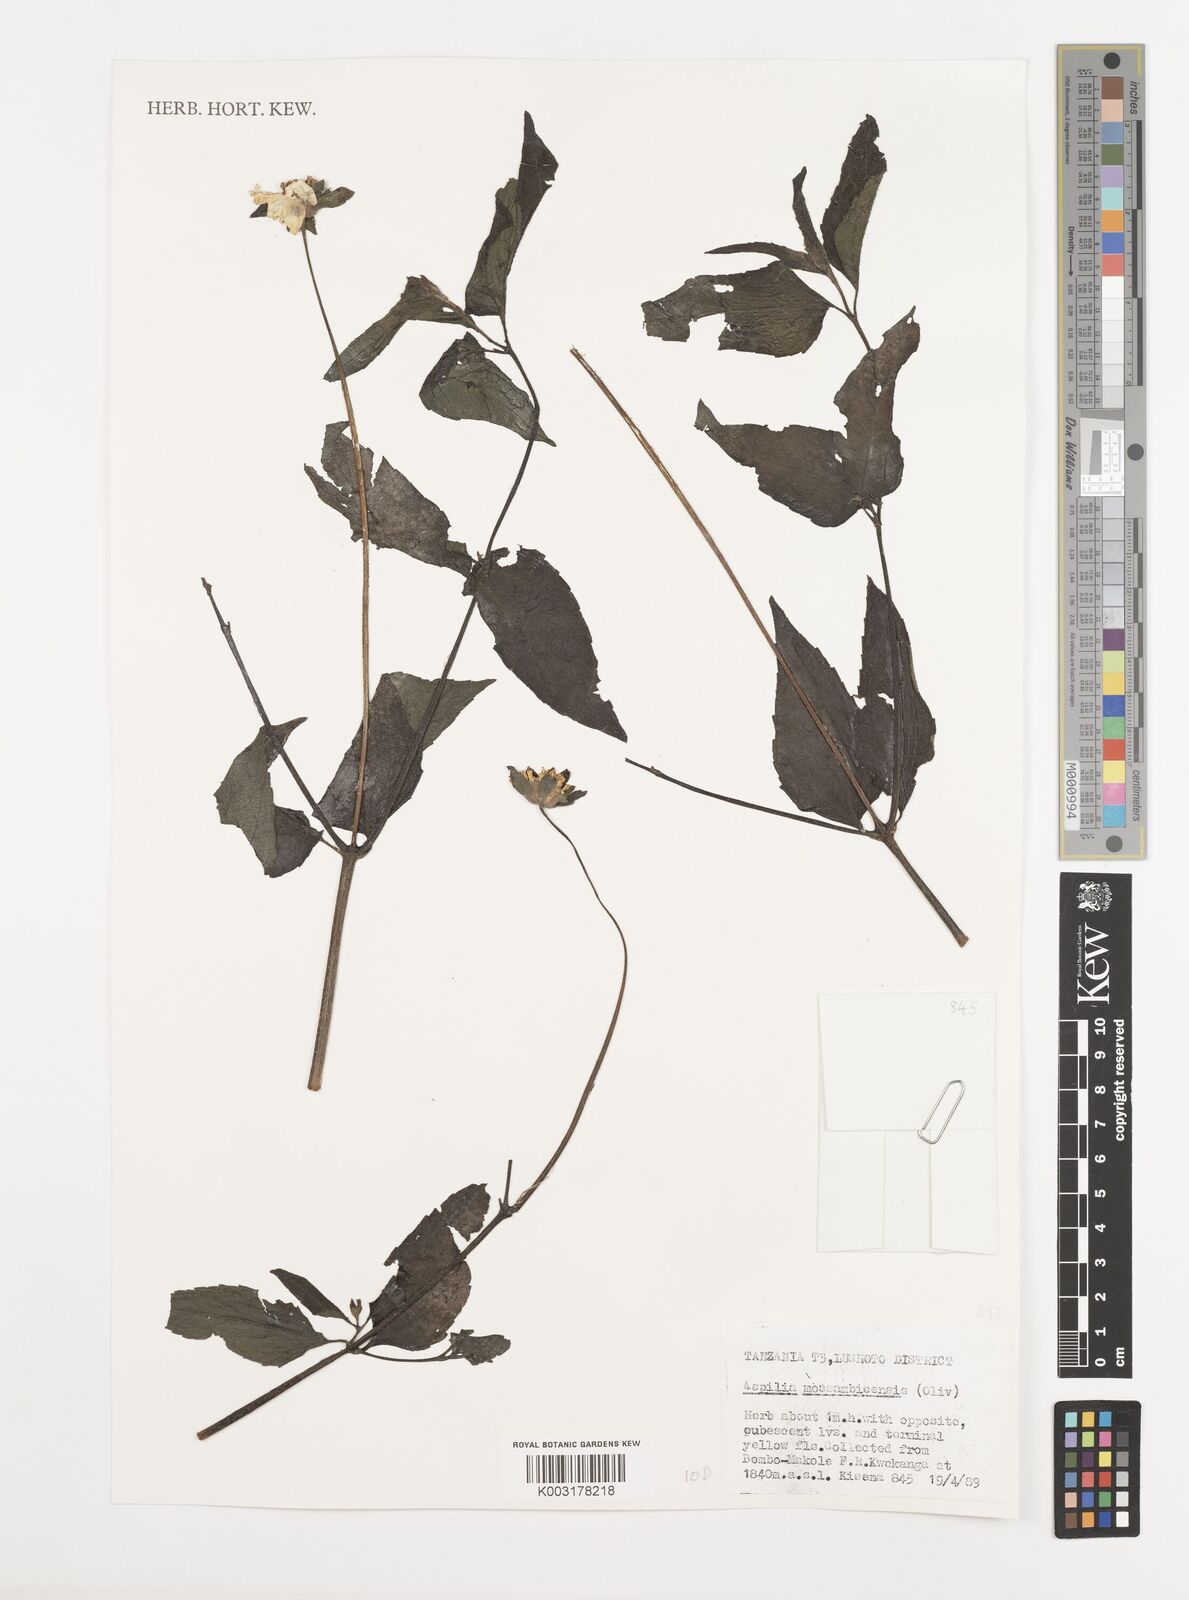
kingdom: Plantae
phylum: Tracheophyta
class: Magnoliopsida
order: Asterales
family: Asteraceae
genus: Aspilia
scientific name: Aspilia mossambicensis
